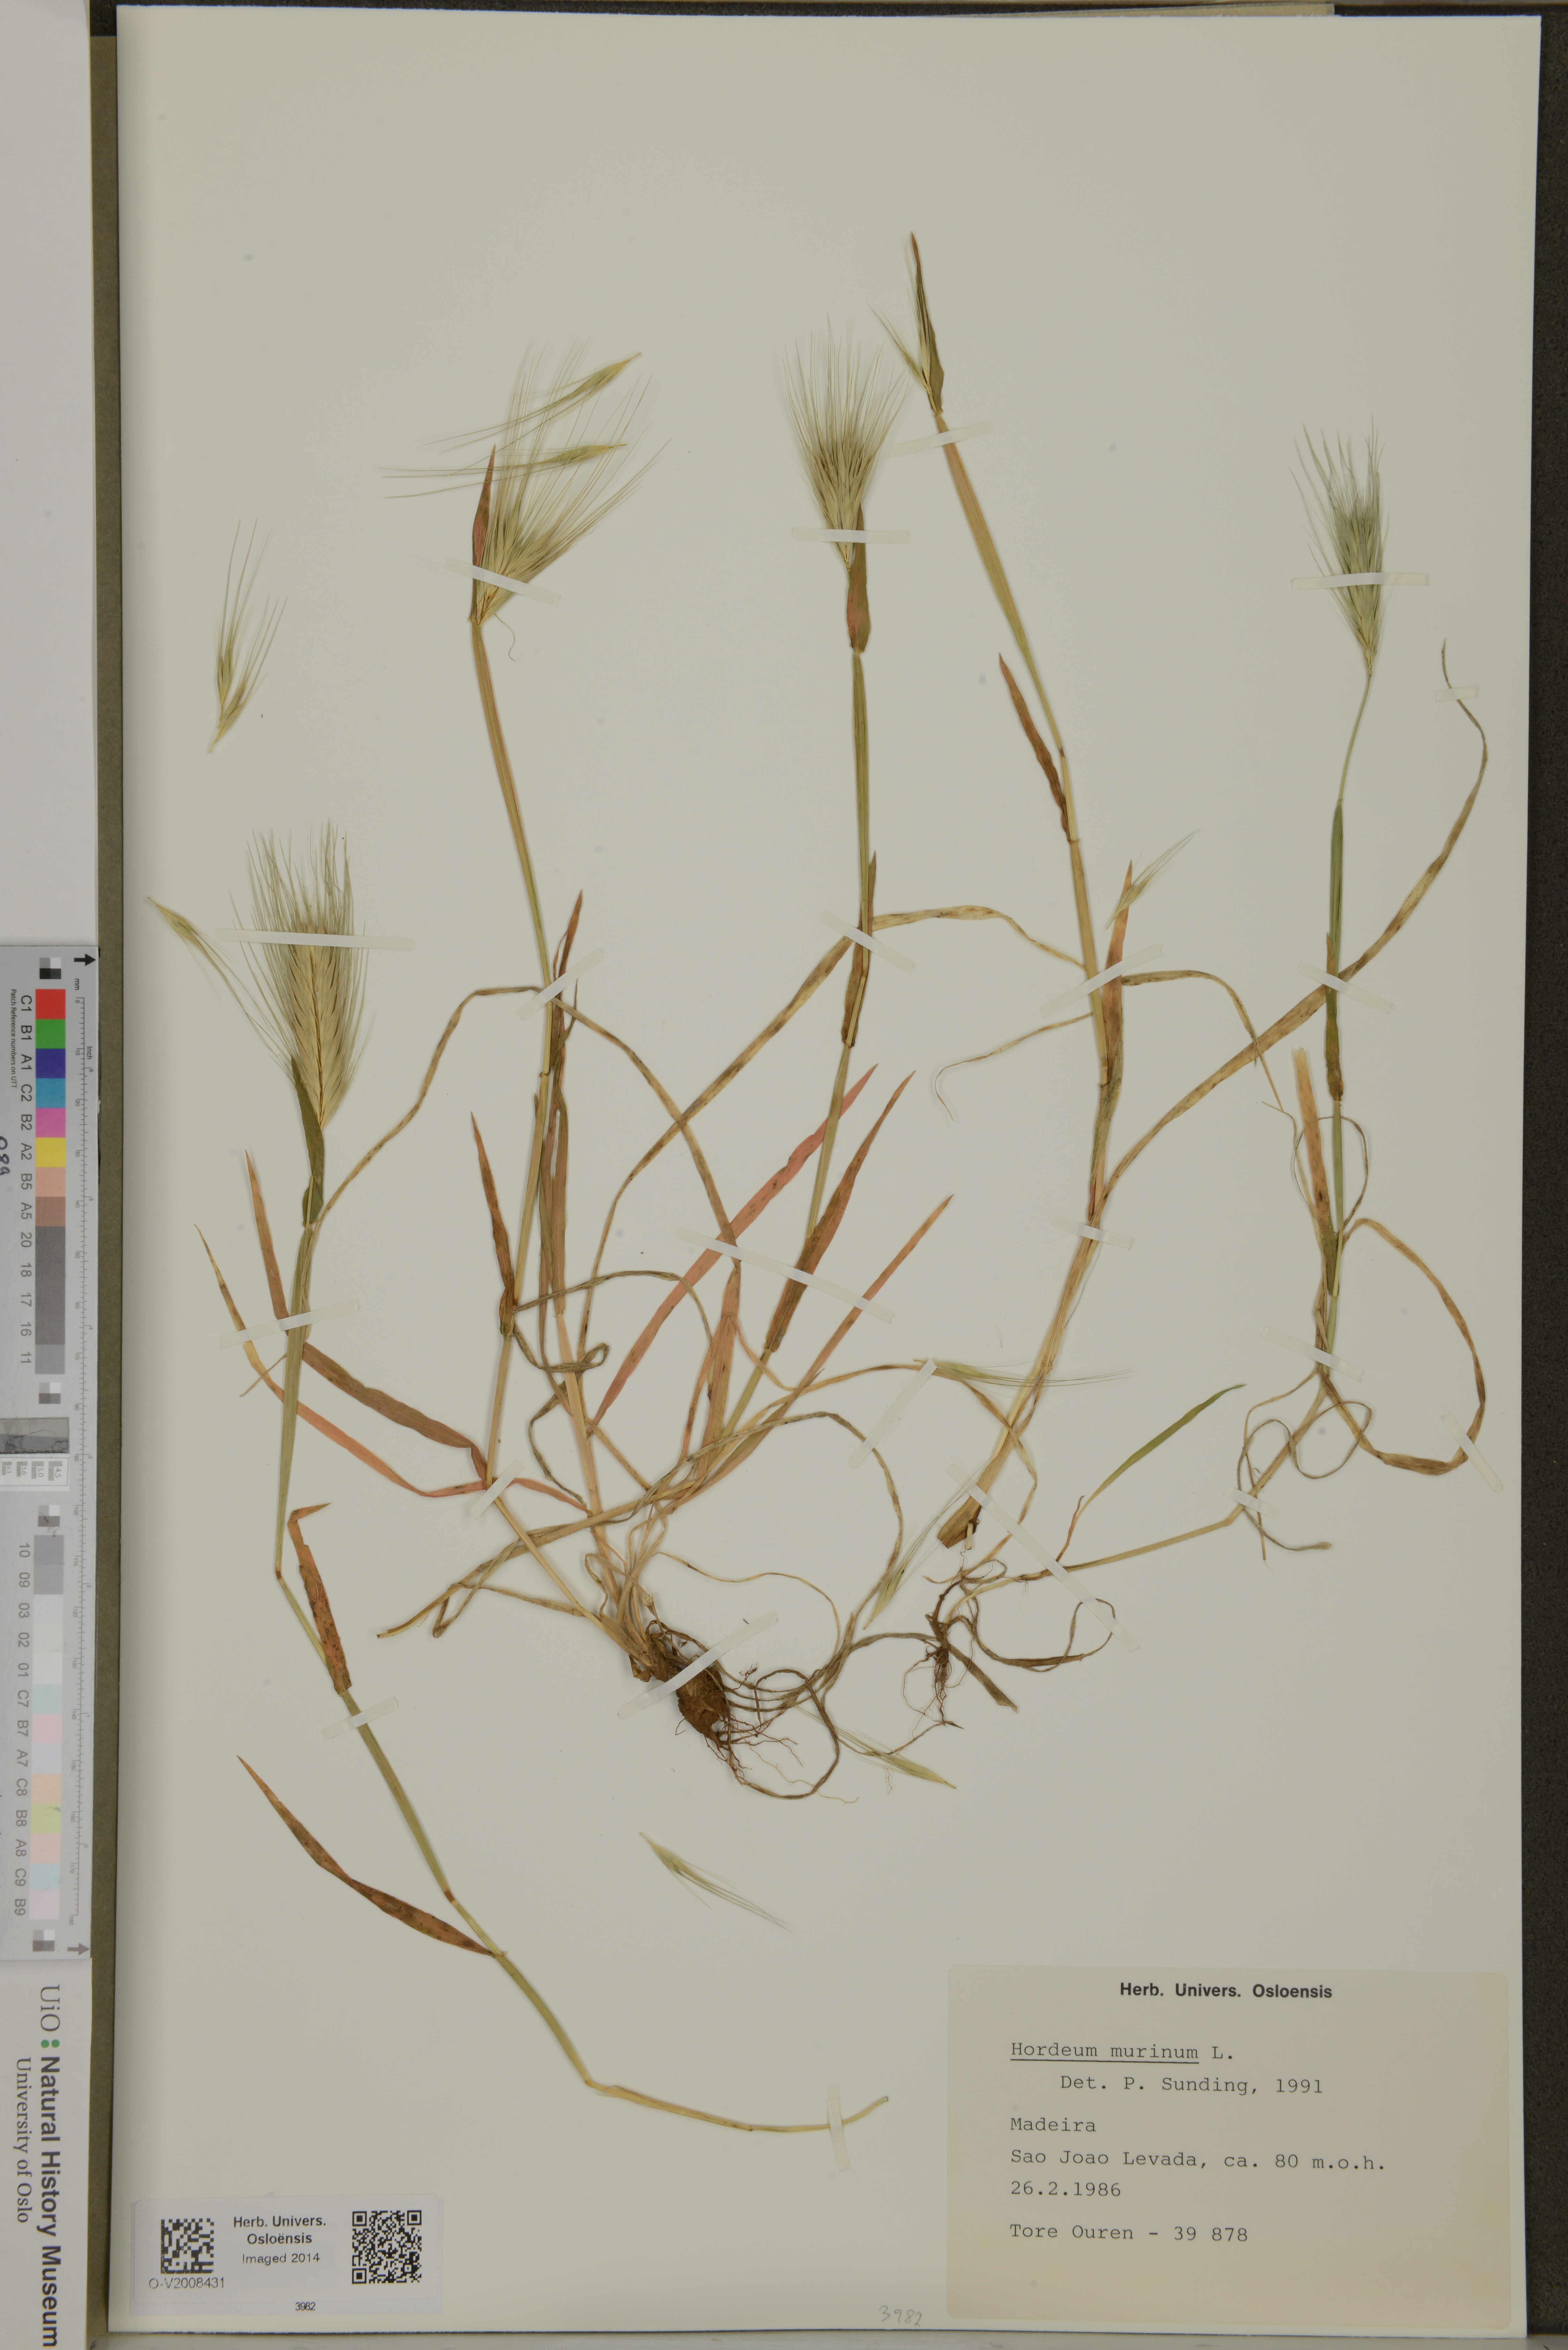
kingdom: Plantae
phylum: Tracheophyta
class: Liliopsida
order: Poales
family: Poaceae
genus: Hordeum
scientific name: Hordeum murinum
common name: Wall barley
